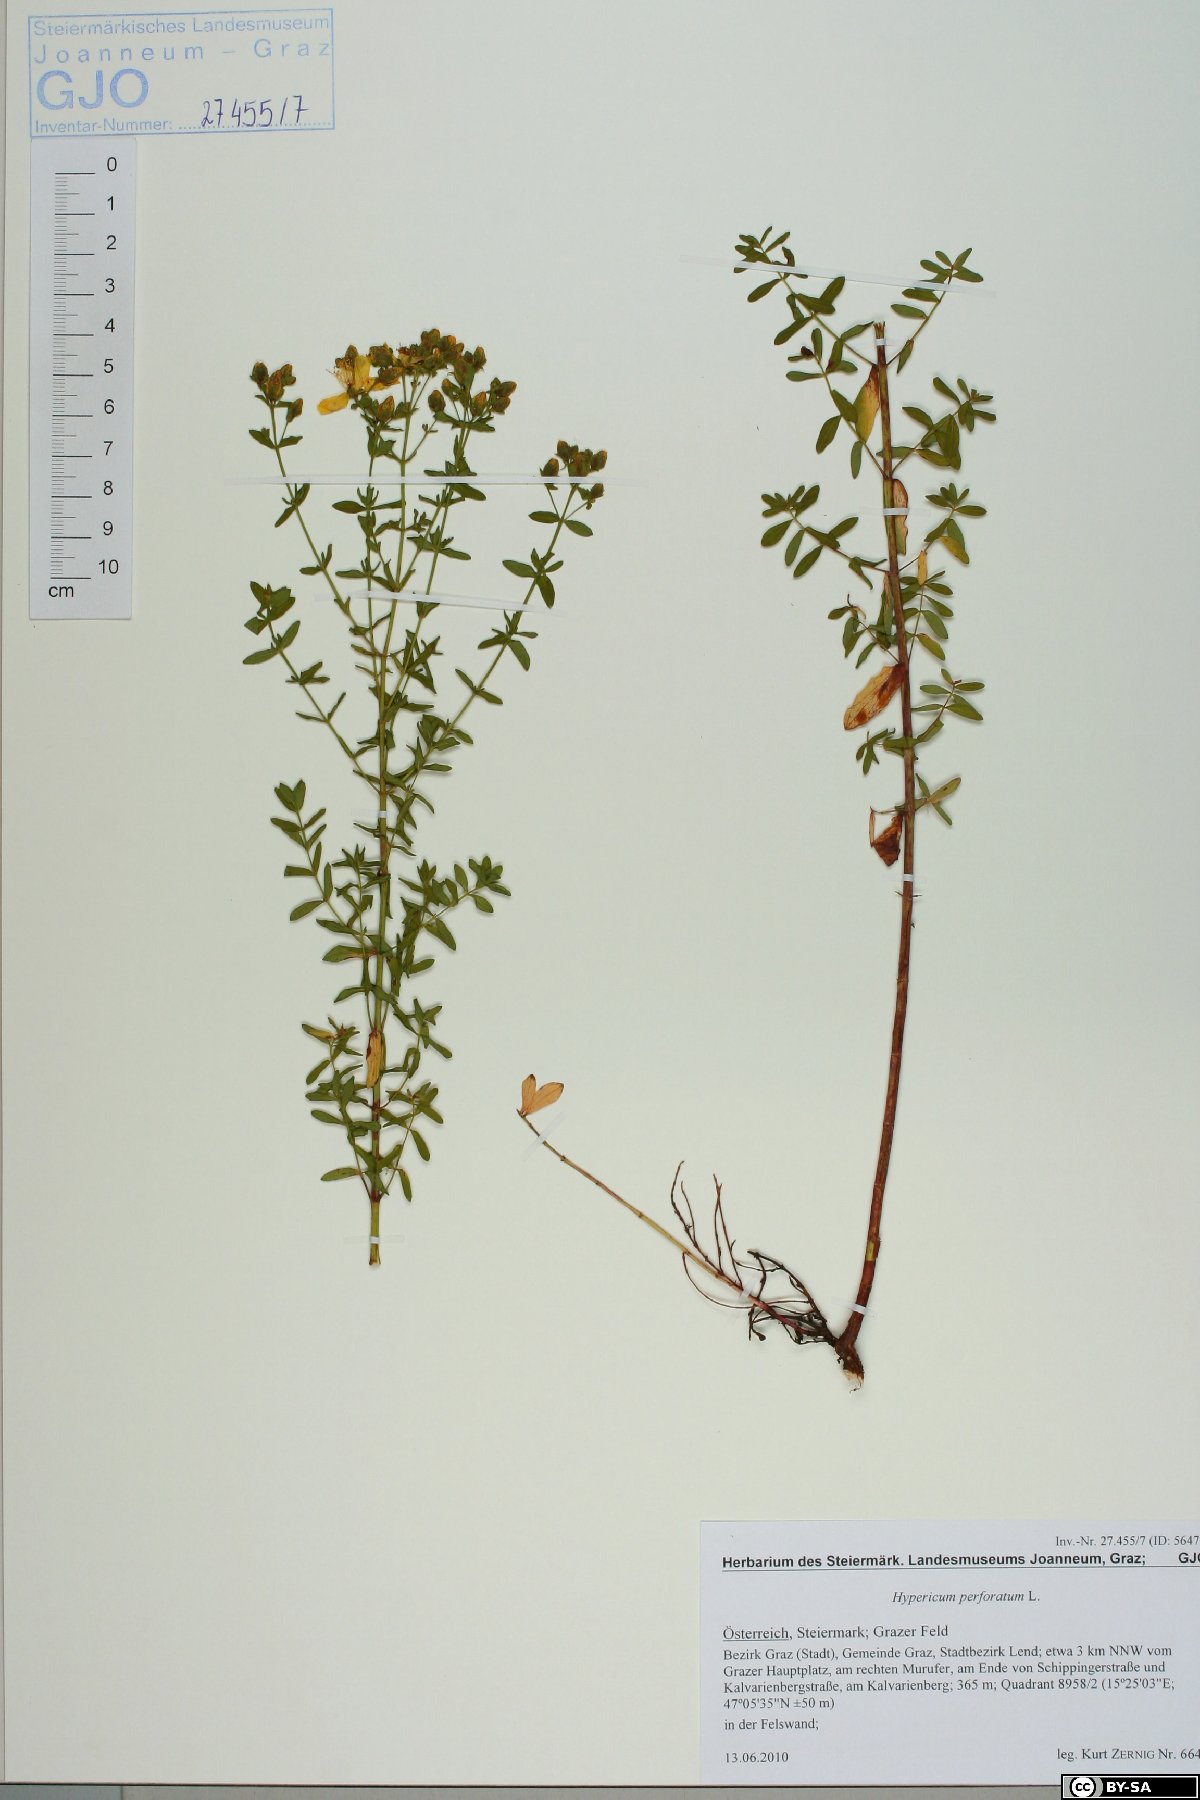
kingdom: Plantae
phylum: Tracheophyta
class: Magnoliopsida
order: Malpighiales
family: Hypericaceae
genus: Hypericum
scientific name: Hypericum perforatum
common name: Common st. johnswort
